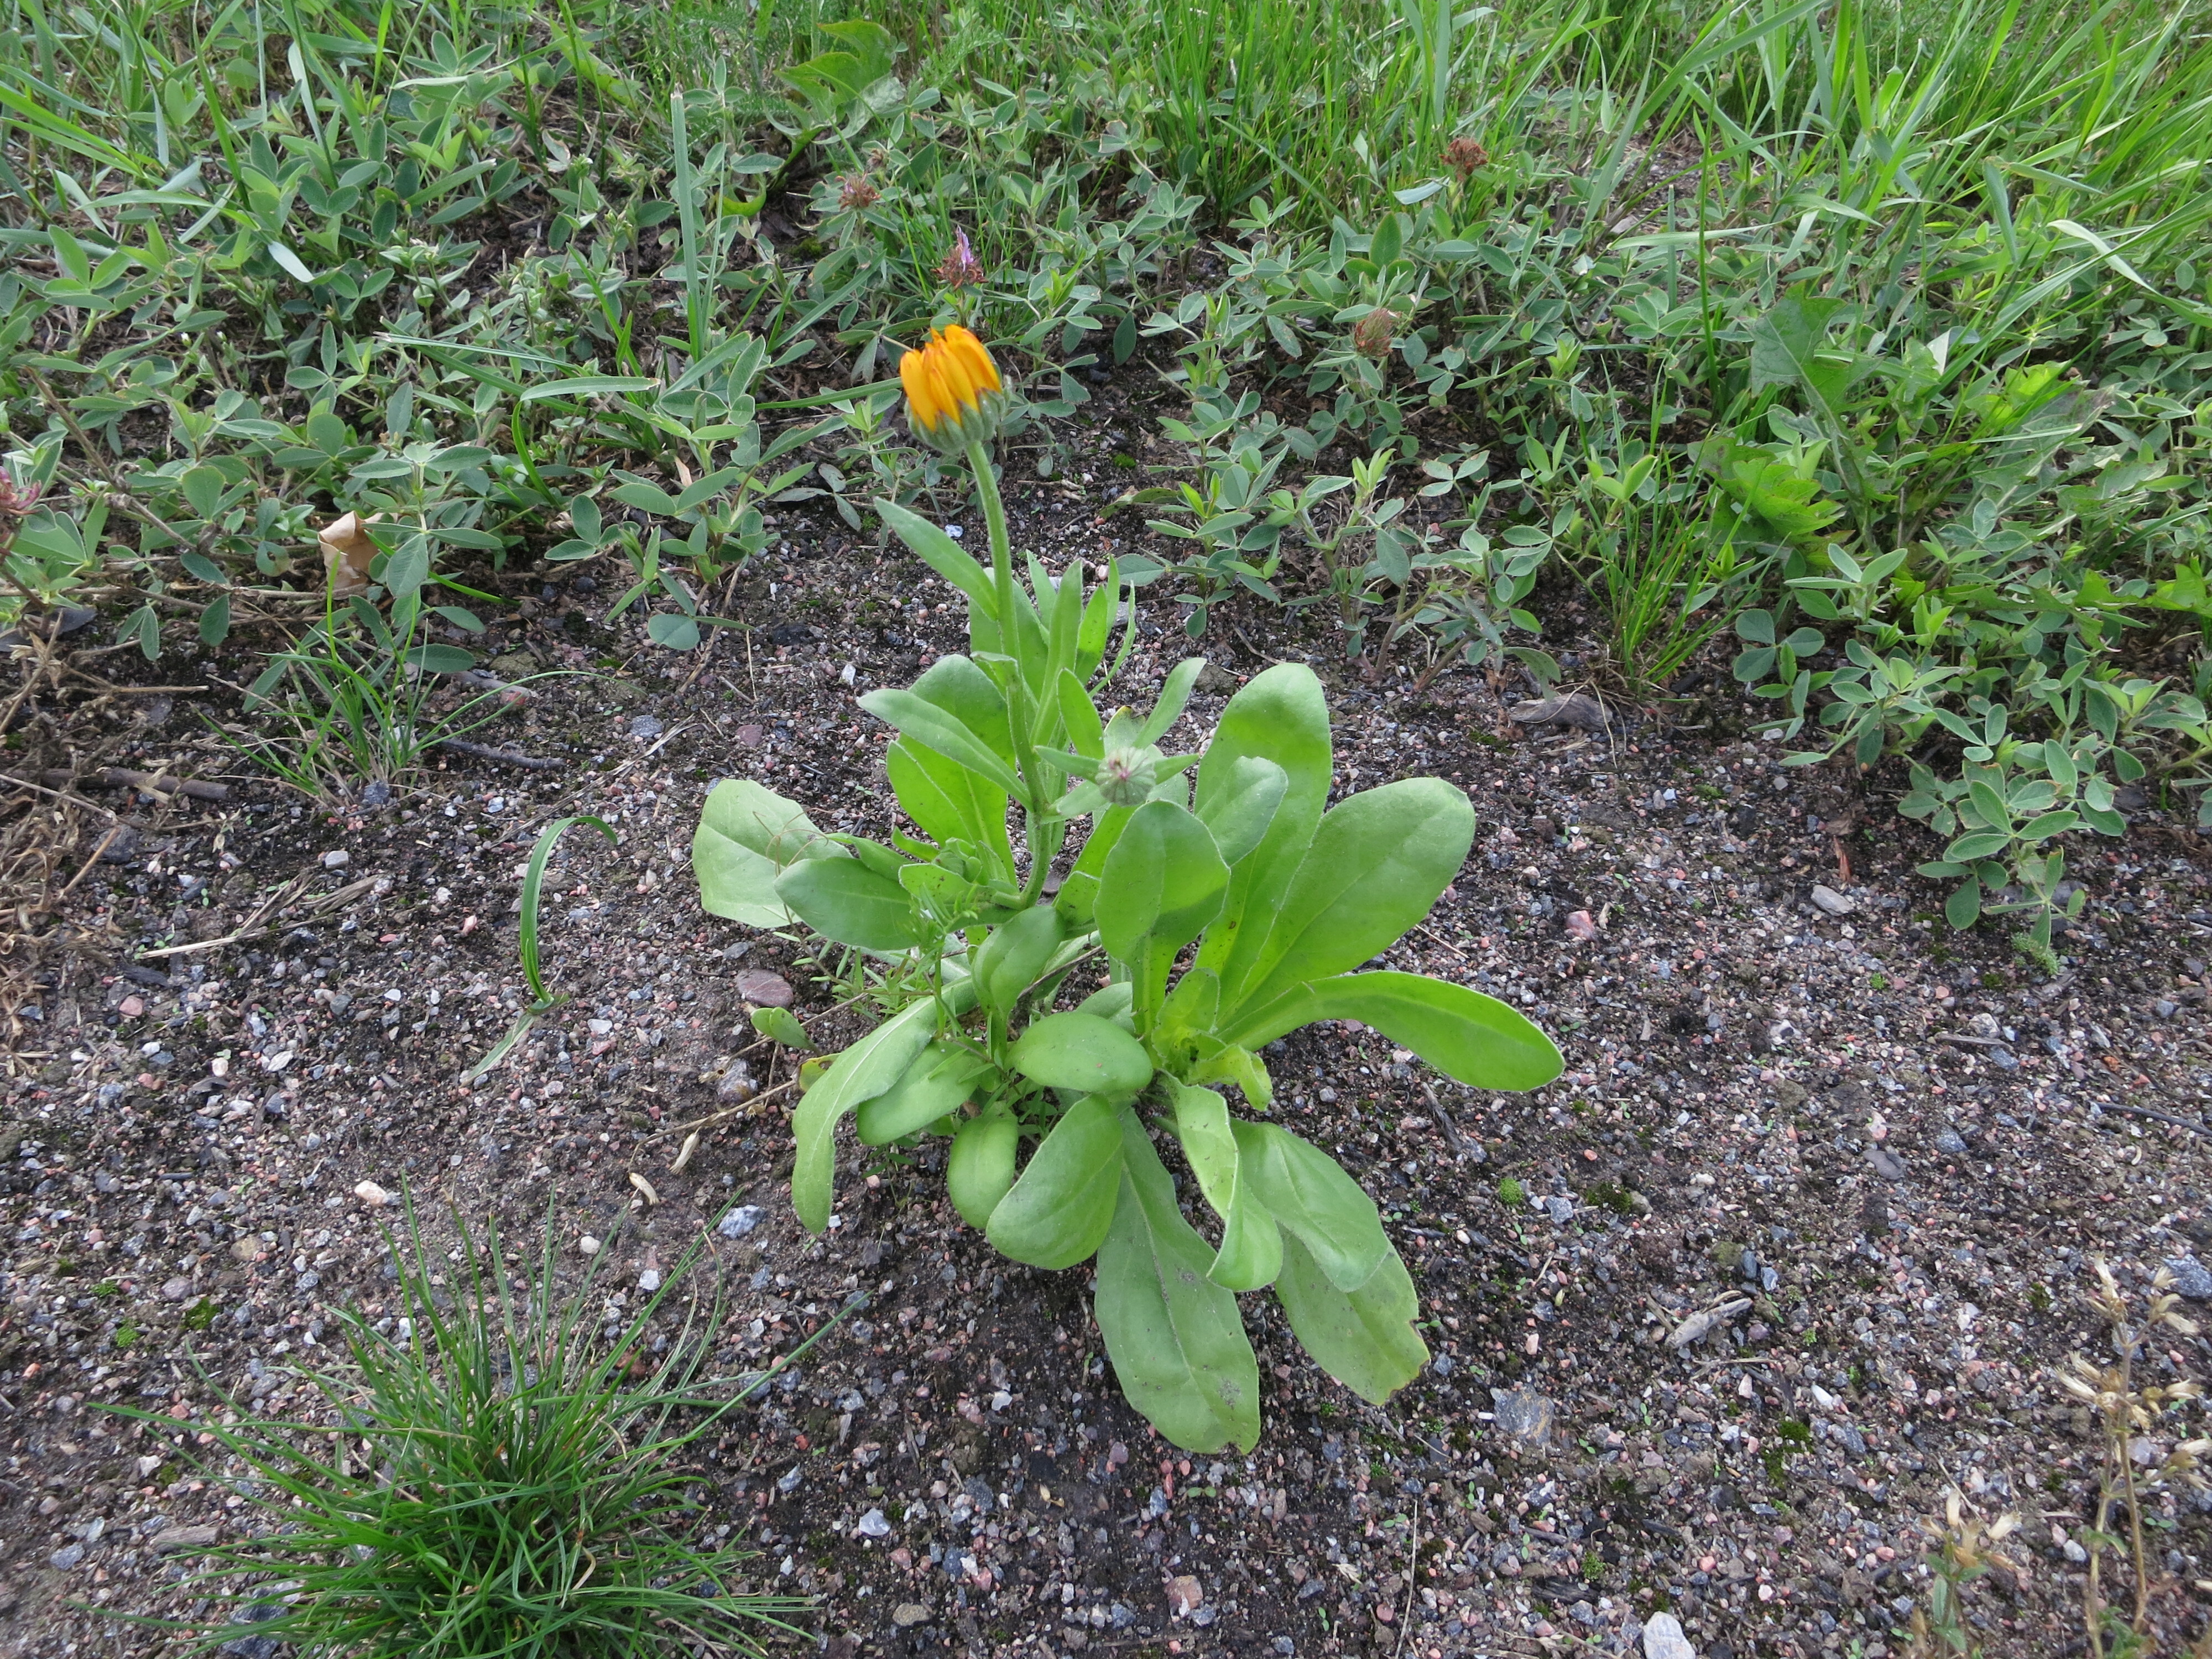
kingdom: Plantae
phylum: Tracheophyta
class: Magnoliopsida
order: Asterales
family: Asteraceae
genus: Calendula
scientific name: Calendula officinalis
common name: Pot marigold
